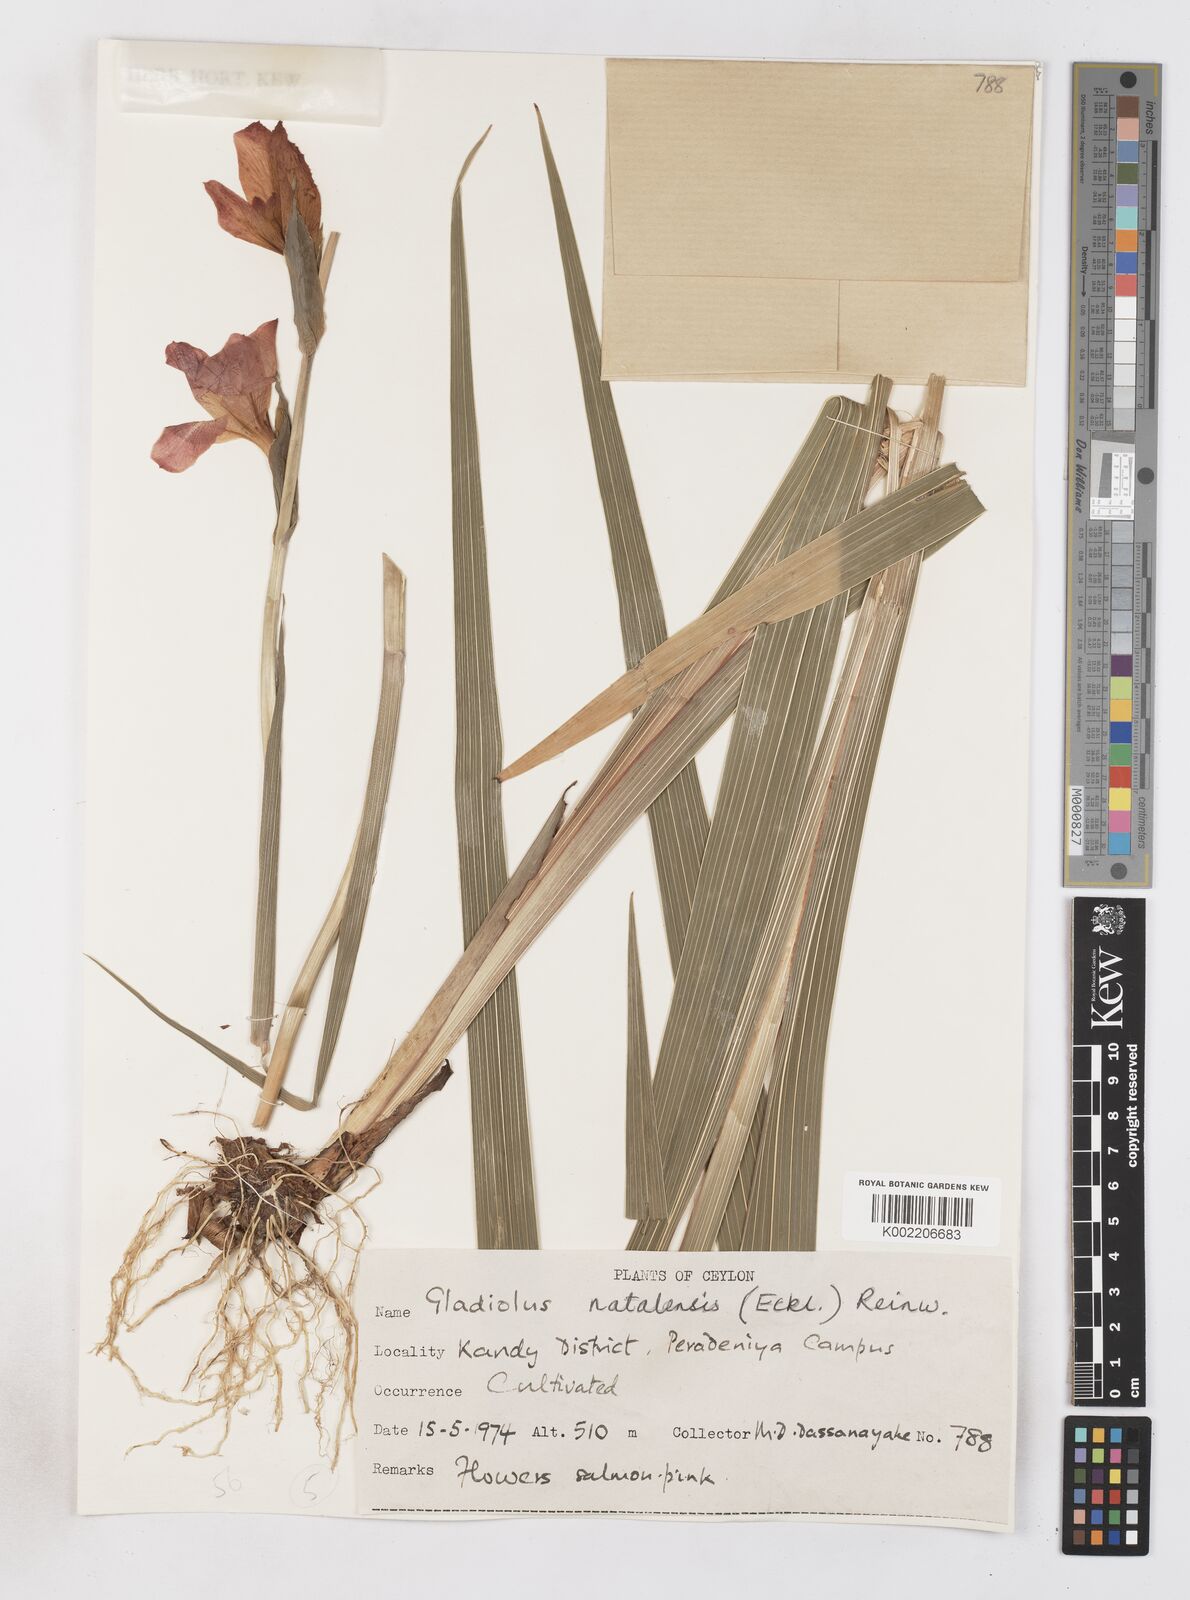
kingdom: Plantae
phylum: Tracheophyta
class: Liliopsida
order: Asparagales
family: Iridaceae
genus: Gladiolus
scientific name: Gladiolus dalenii
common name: Cornflag
